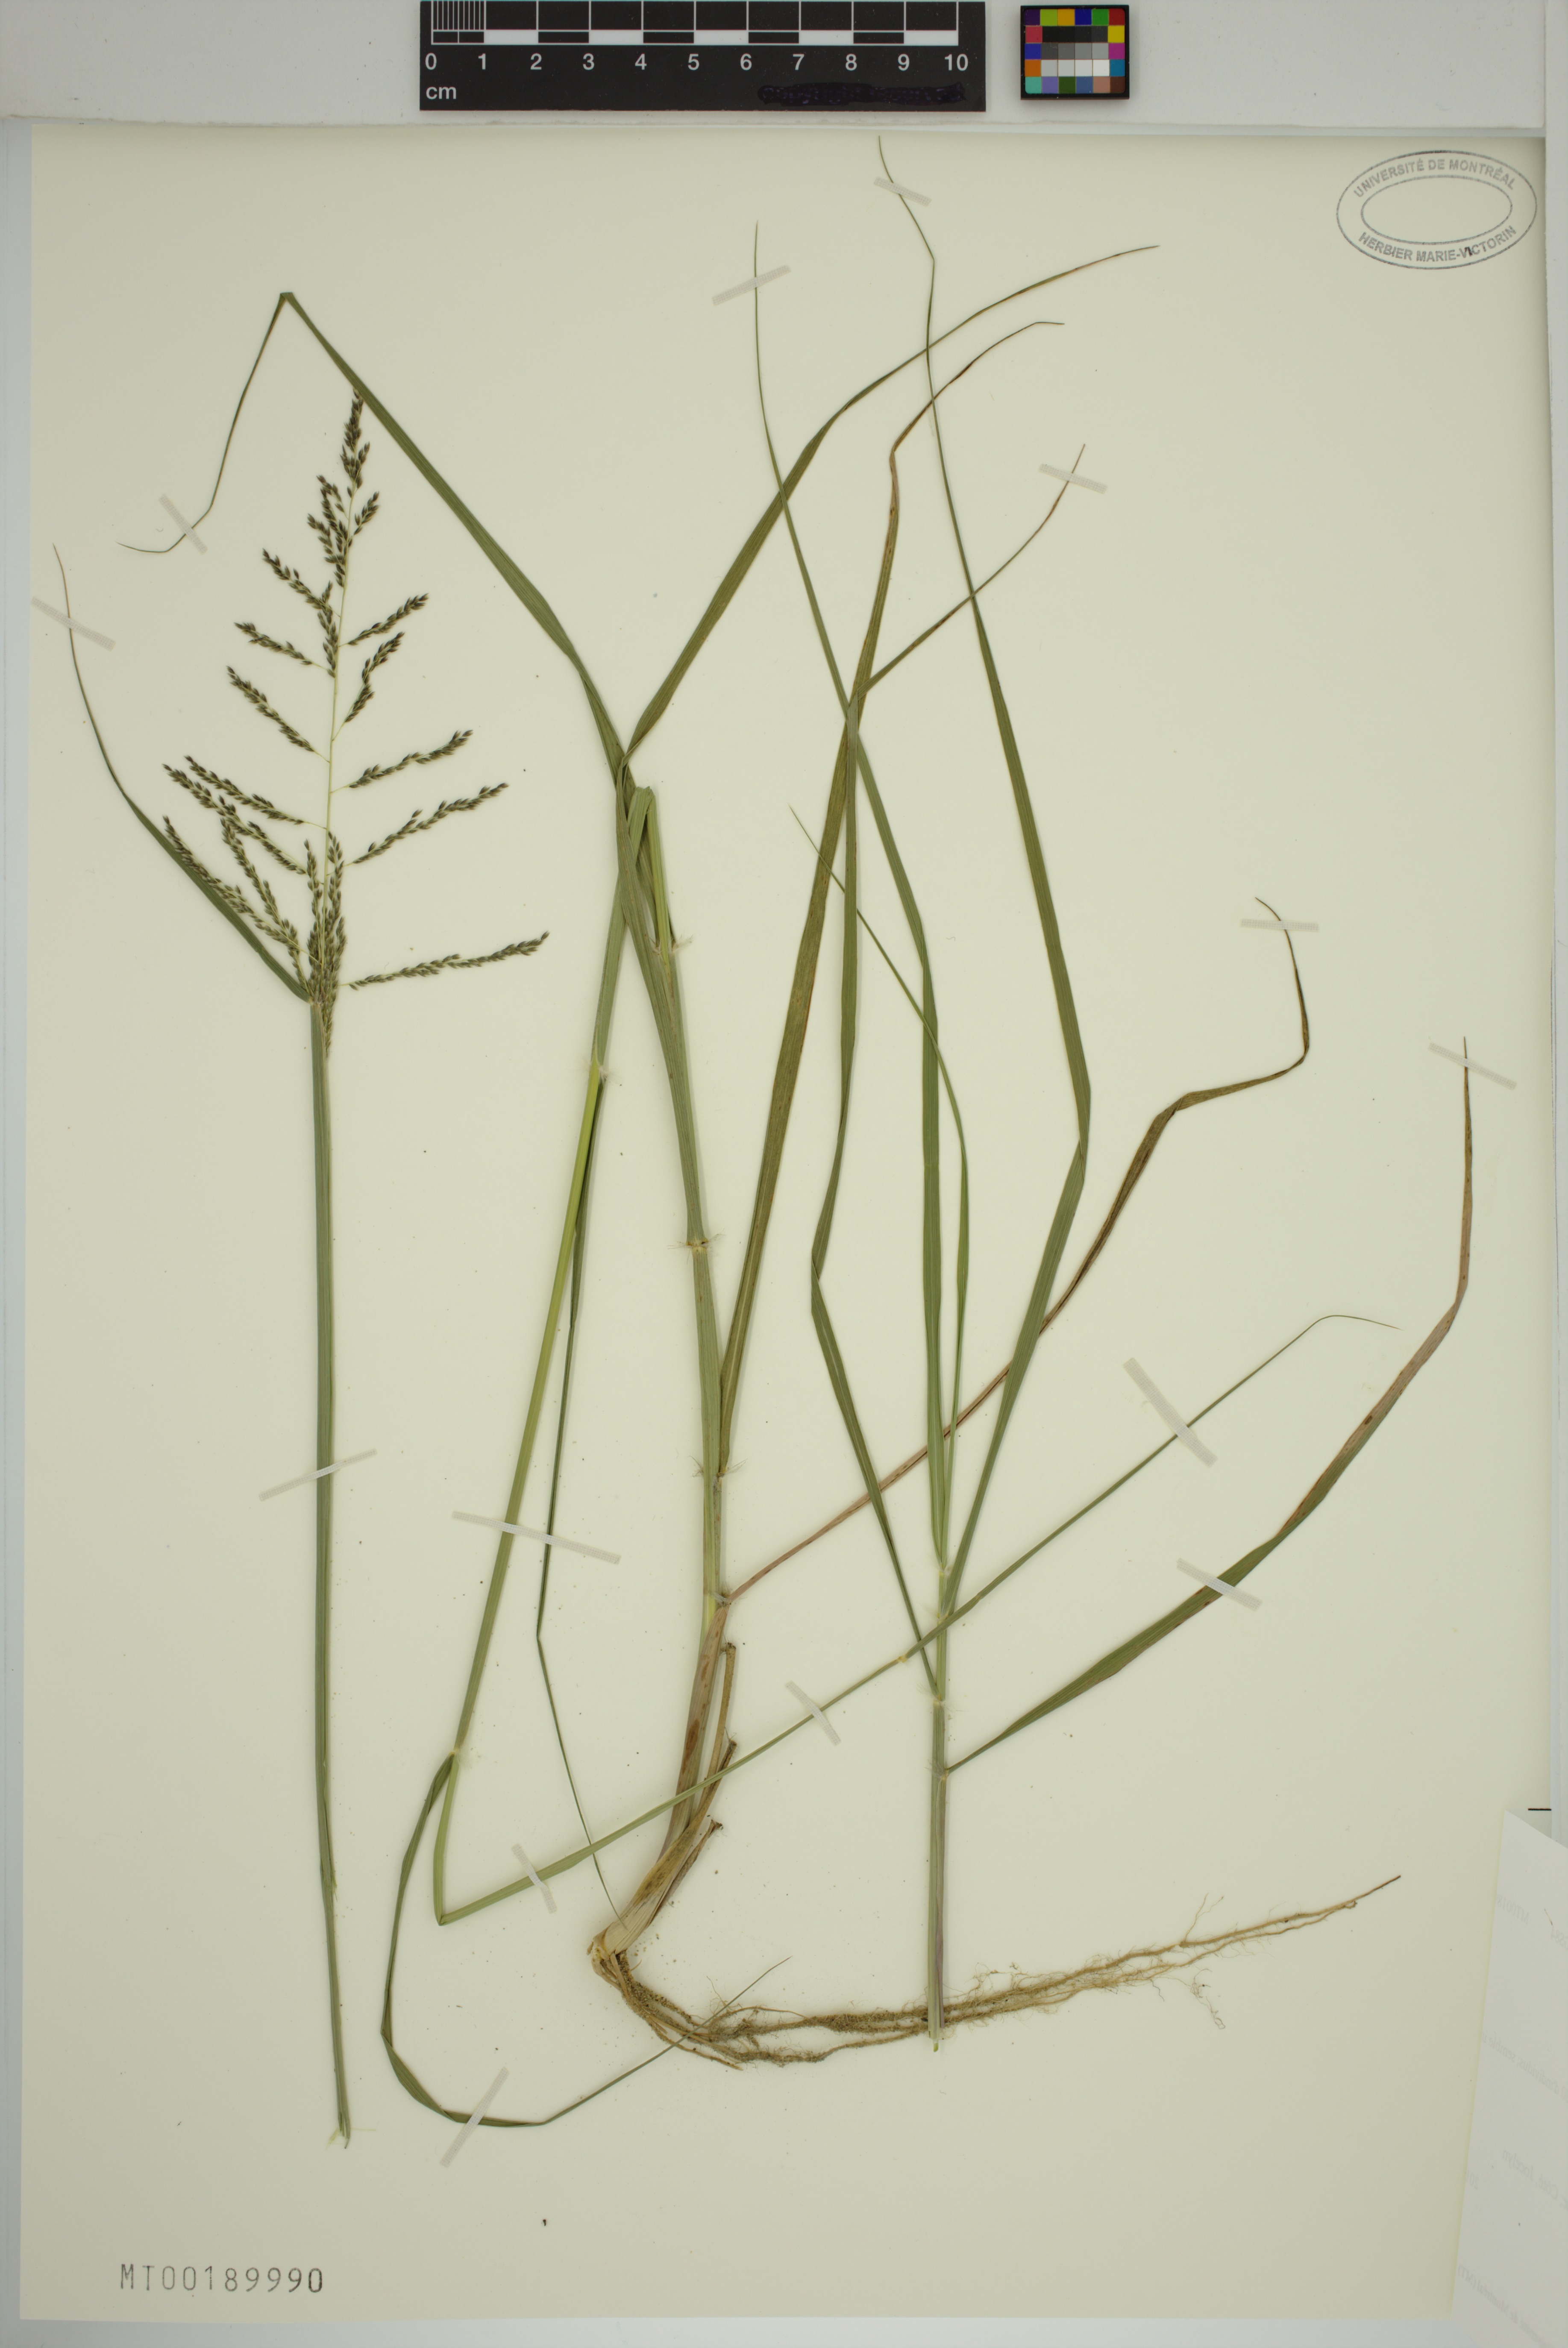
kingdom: Plantae
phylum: Tracheophyta
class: Liliopsida
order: Poales
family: Poaceae
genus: Sporobolus
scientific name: Sporobolus cryptandrus
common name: Sand dropseed
